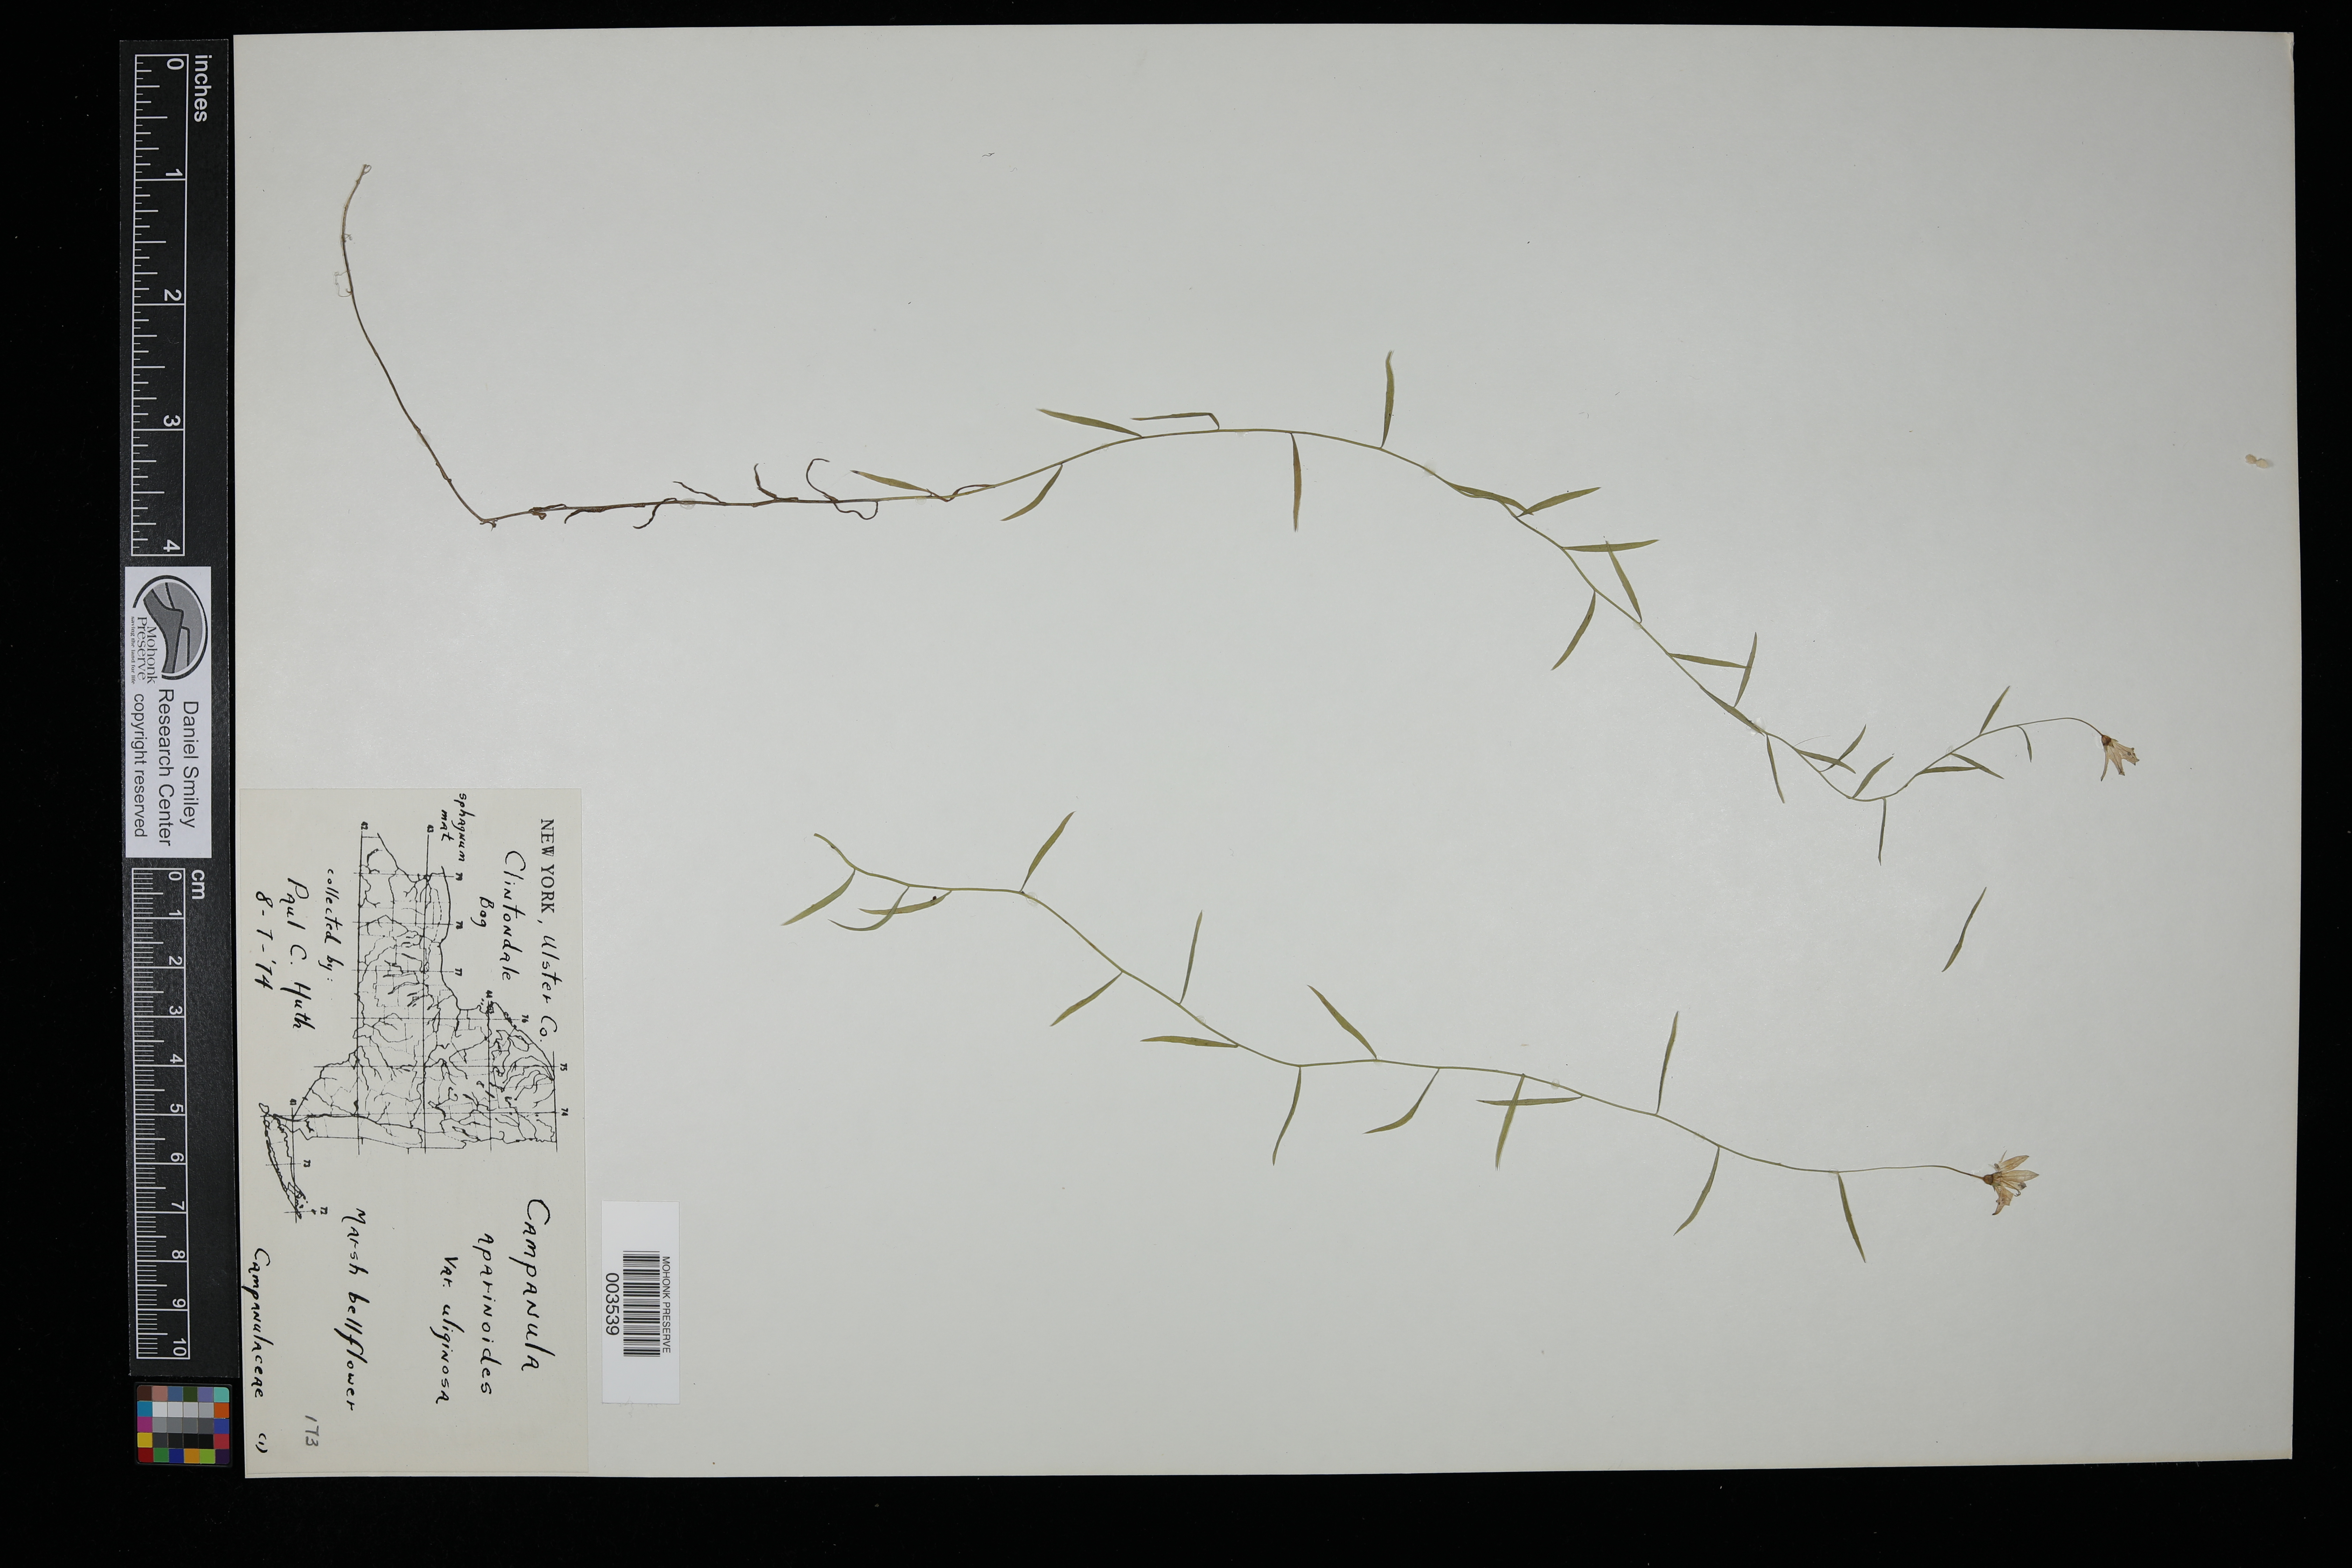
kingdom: Plantae
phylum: Tracheophyta
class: Magnoliopsida
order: Asterales
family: Campanulaceae
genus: Palustricodon
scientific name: Palustricodon aparinoides
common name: Bedstraw bellflower
